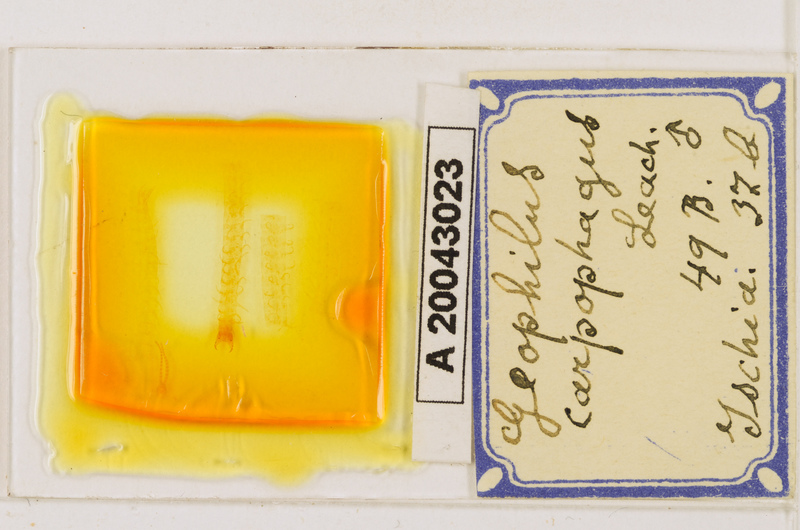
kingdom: Animalia
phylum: Arthropoda
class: Chilopoda
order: Geophilomorpha
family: Geophilidae
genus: Geophilus
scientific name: Geophilus carpophagus
